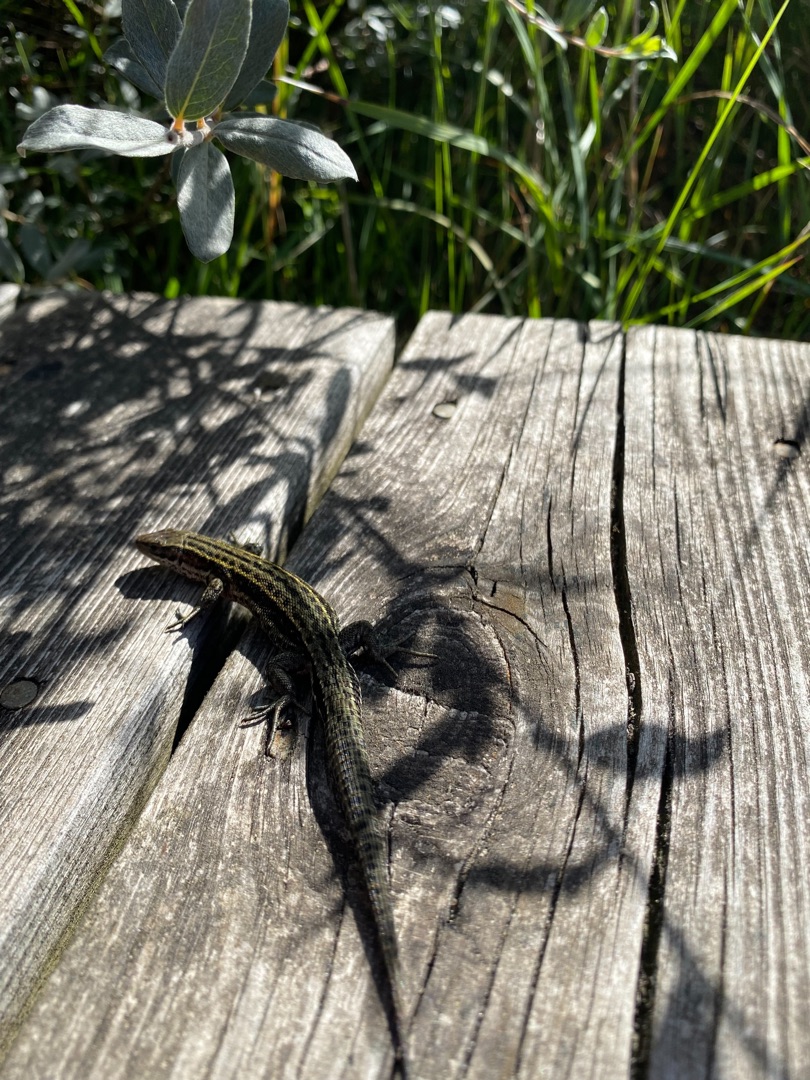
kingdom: Animalia
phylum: Chordata
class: Squamata
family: Lacertidae
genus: Zootoca
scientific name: Zootoca vivipara
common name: Skovfirben
